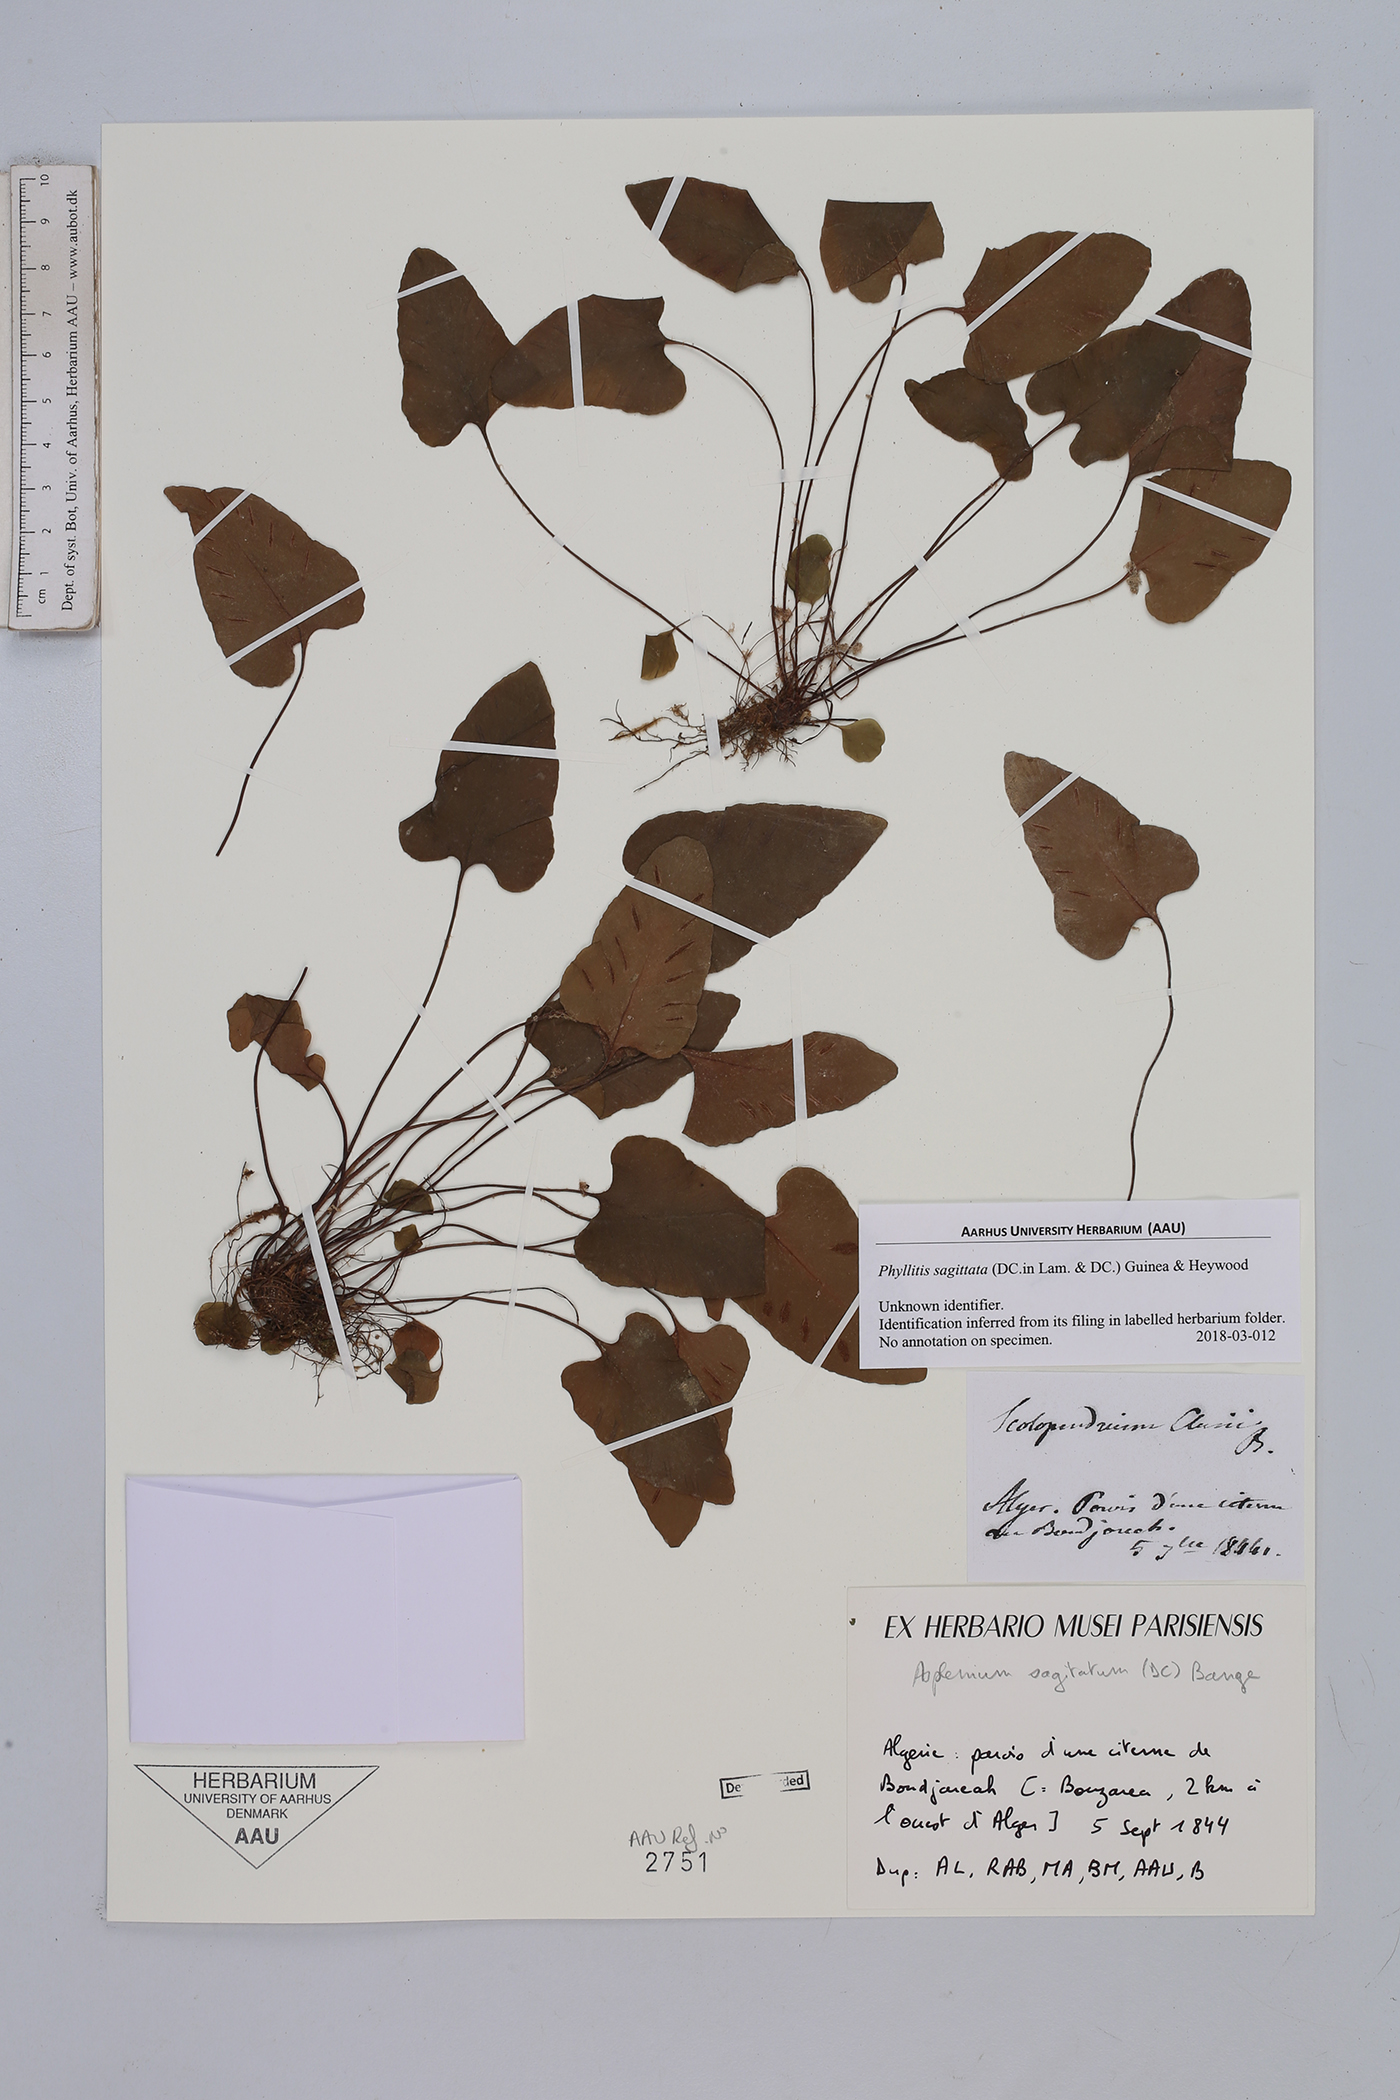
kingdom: Plantae
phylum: Tracheophyta
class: Polypodiopsida
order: Polypodiales
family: Aspleniaceae
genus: Asplenium
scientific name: Asplenium sagittatum
